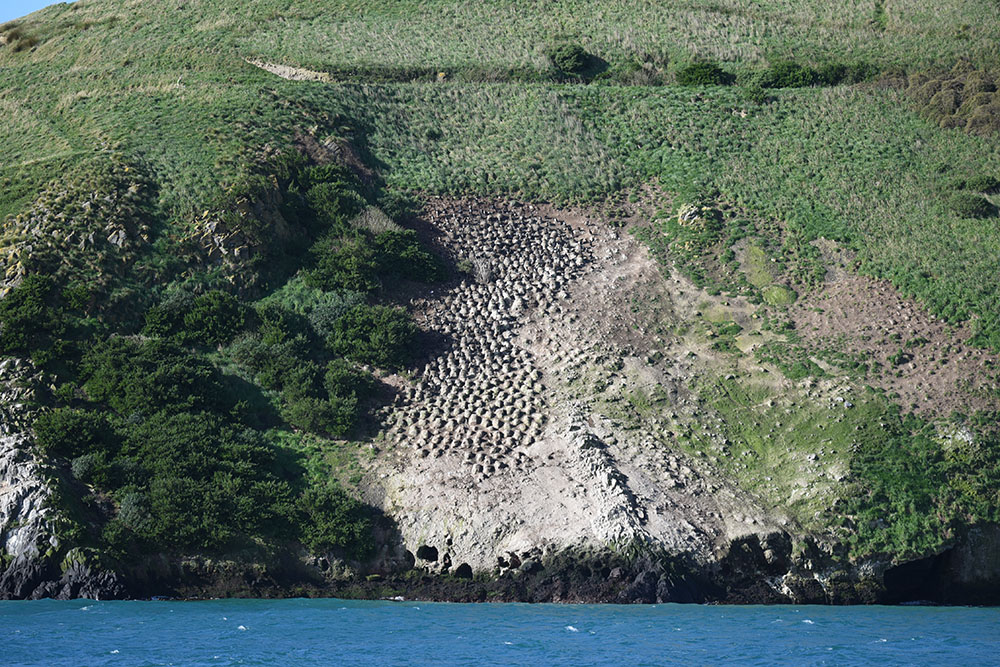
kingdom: Animalia
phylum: Chordata
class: Aves
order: Suliformes
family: Phalacrocoracidae
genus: Leucocarbo
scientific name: Leucocarbo chalconotus
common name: Stewart shag
